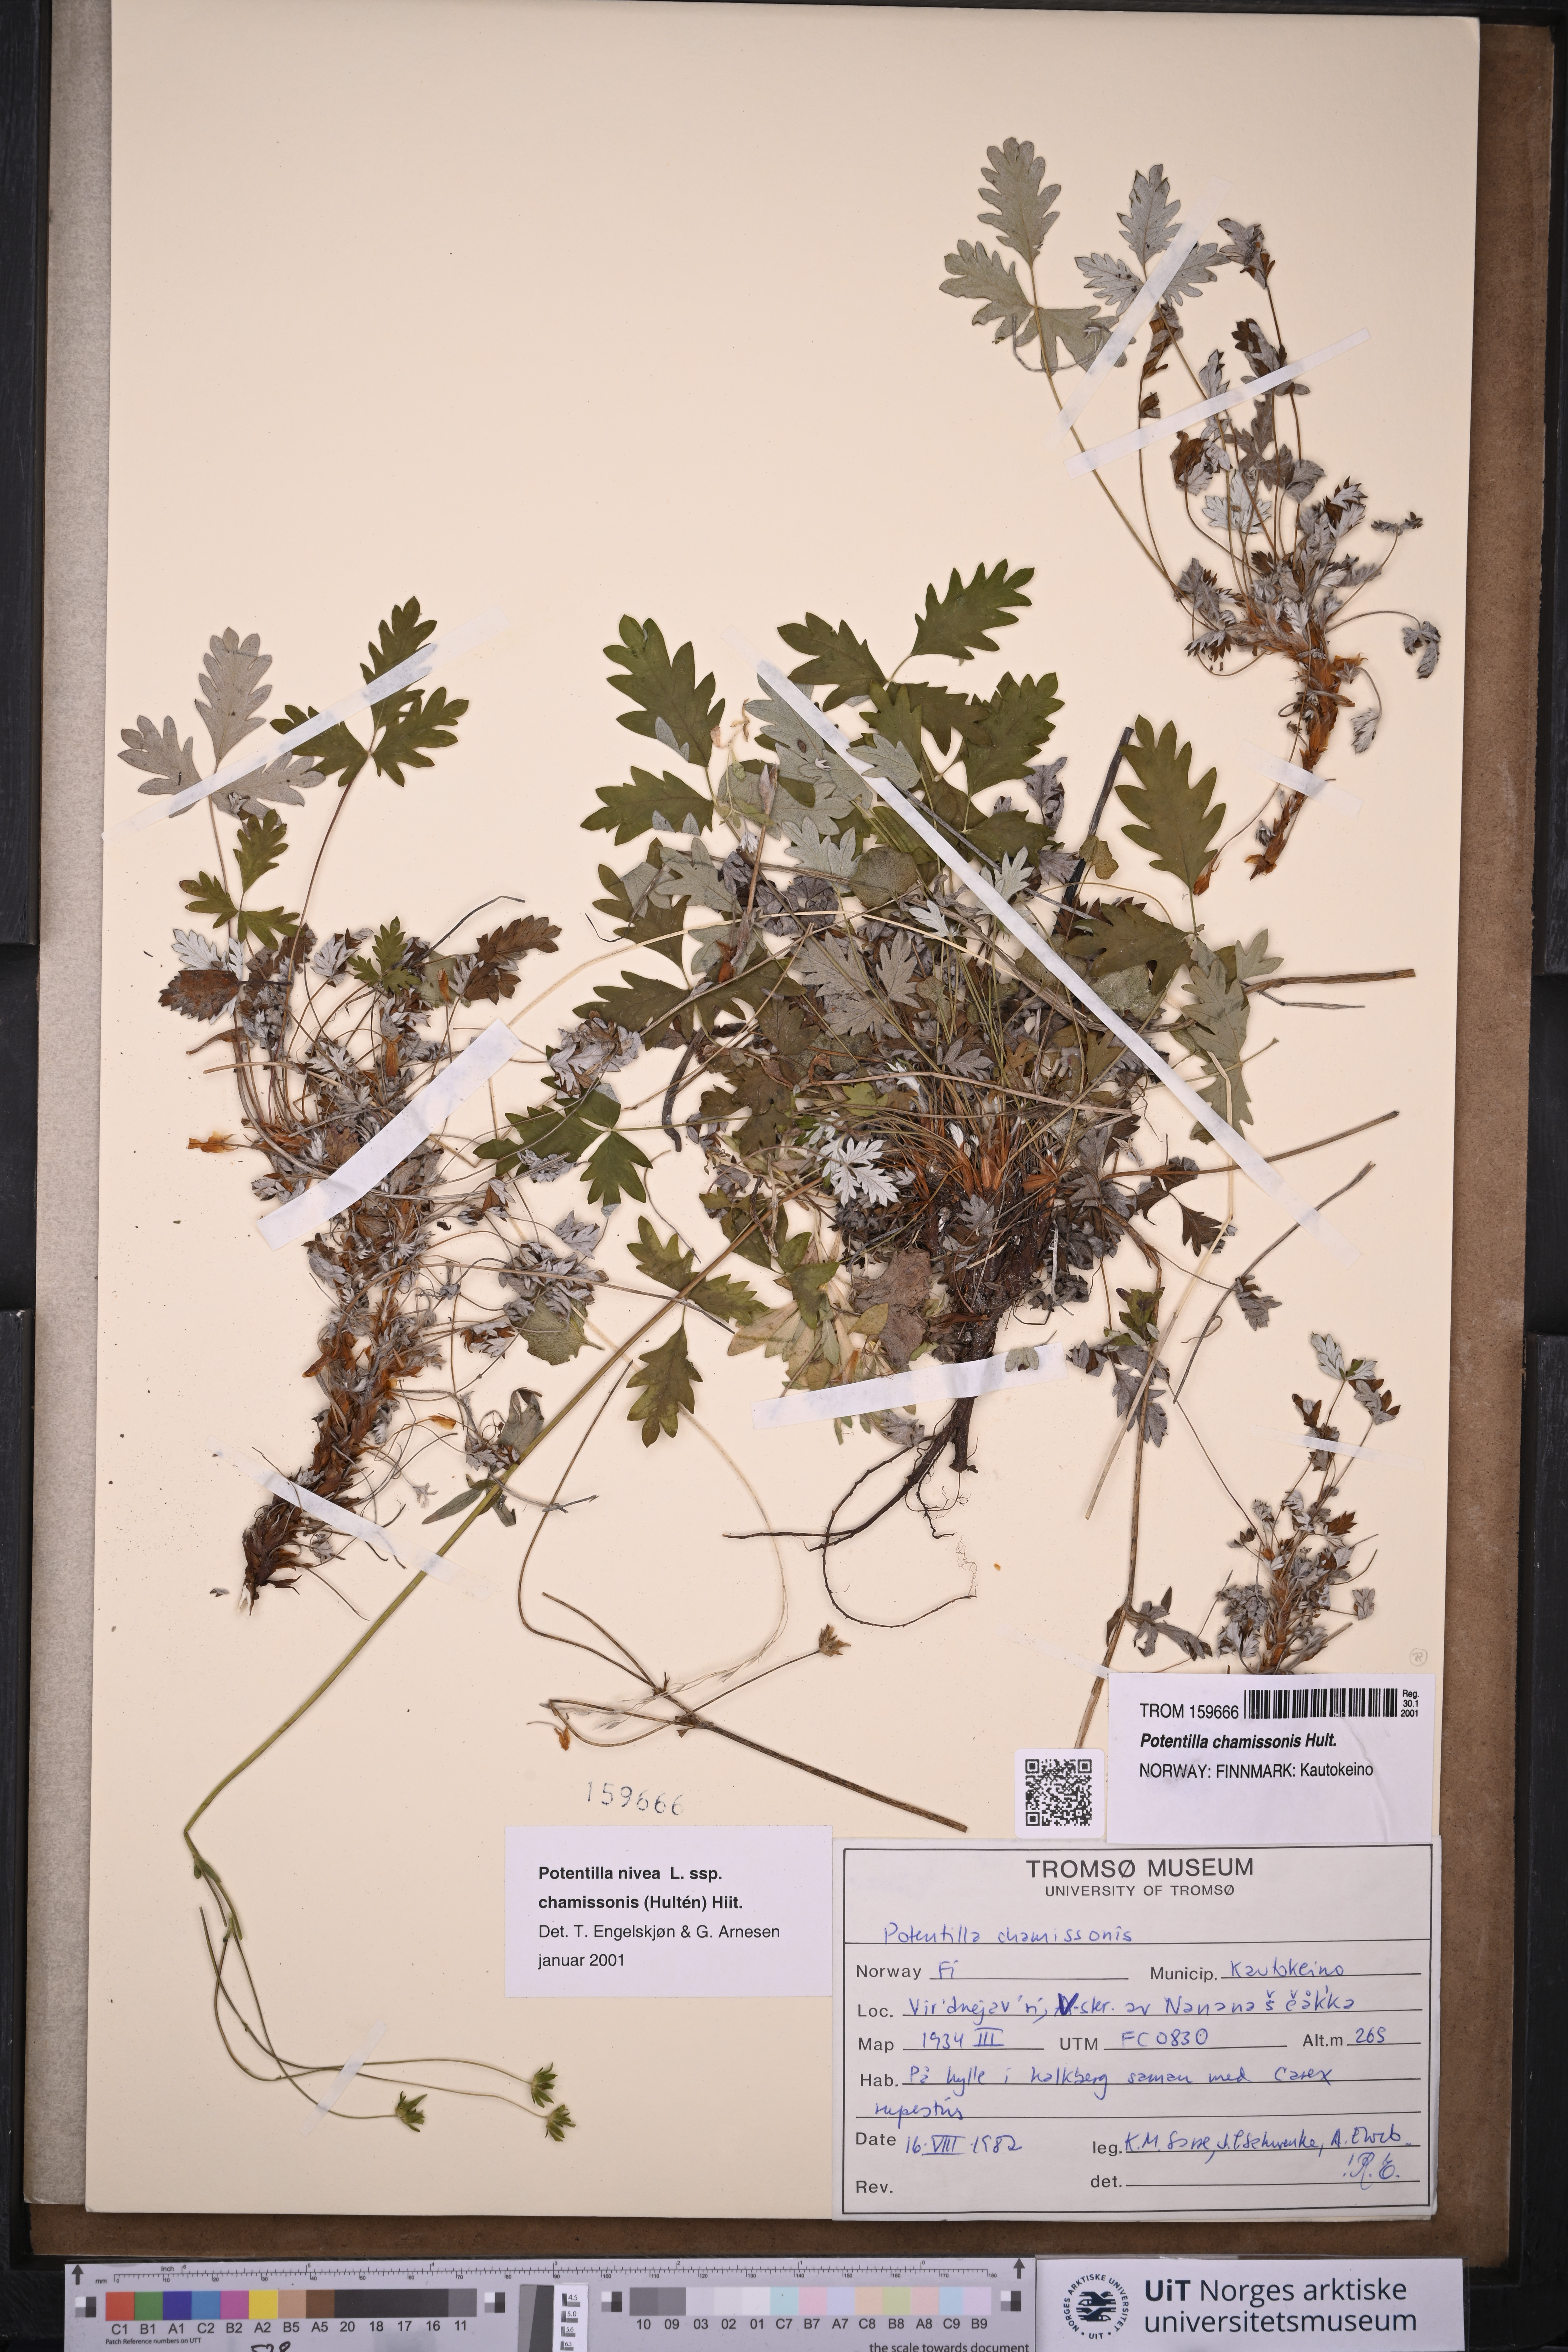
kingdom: Plantae
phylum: Tracheophyta
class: Magnoliopsida
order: Rosales
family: Rosaceae
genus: Potentilla
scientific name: Potentilla chamissonis
